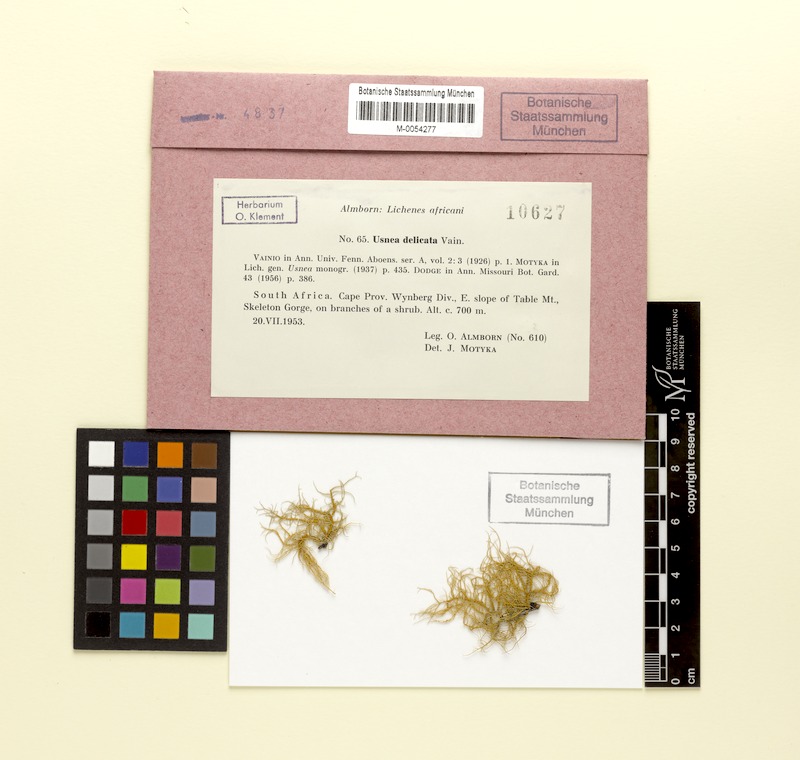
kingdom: Fungi
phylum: Ascomycota
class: Lecanoromycetes
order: Lecanorales
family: Parmeliaceae
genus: Usnea
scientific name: Usnea delicata
